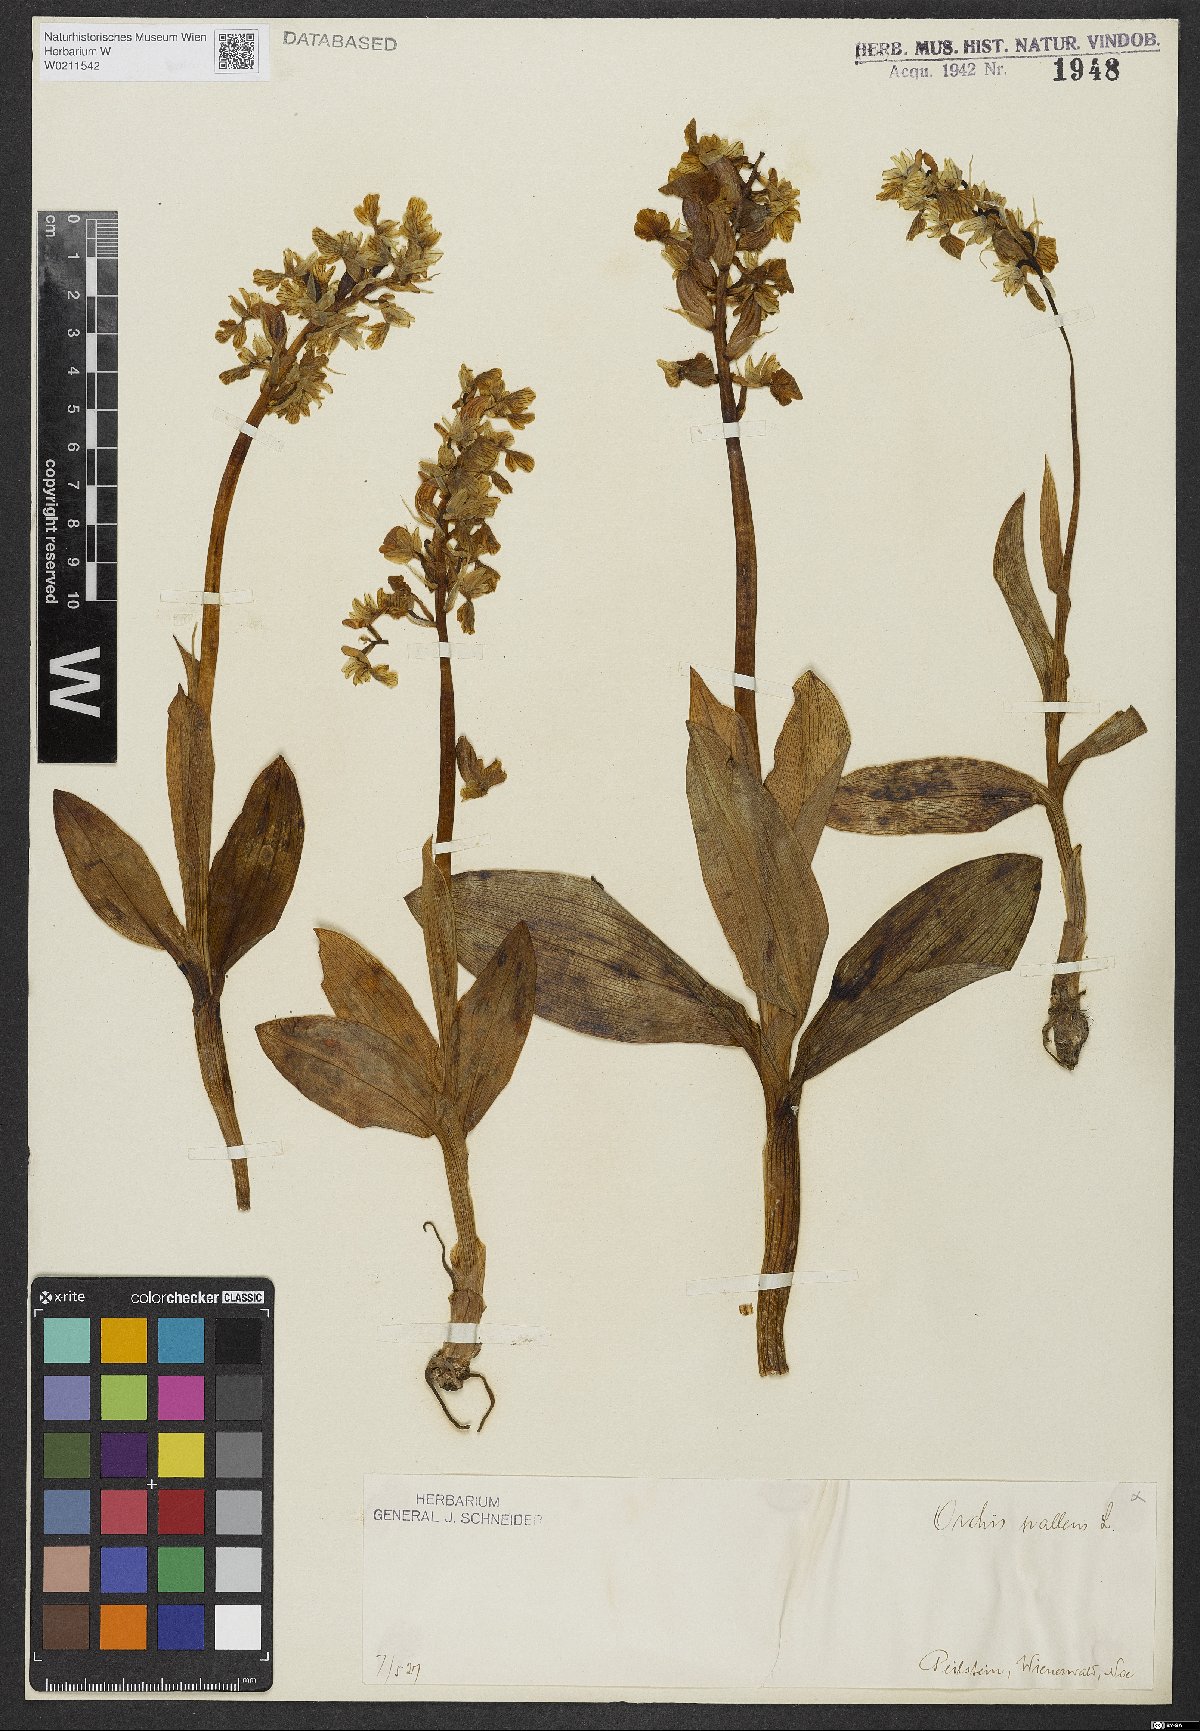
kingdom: Plantae
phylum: Tracheophyta
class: Liliopsida
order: Asparagales
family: Orchidaceae
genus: Orchis
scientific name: Orchis pallens
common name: Pale-flowered orchid
